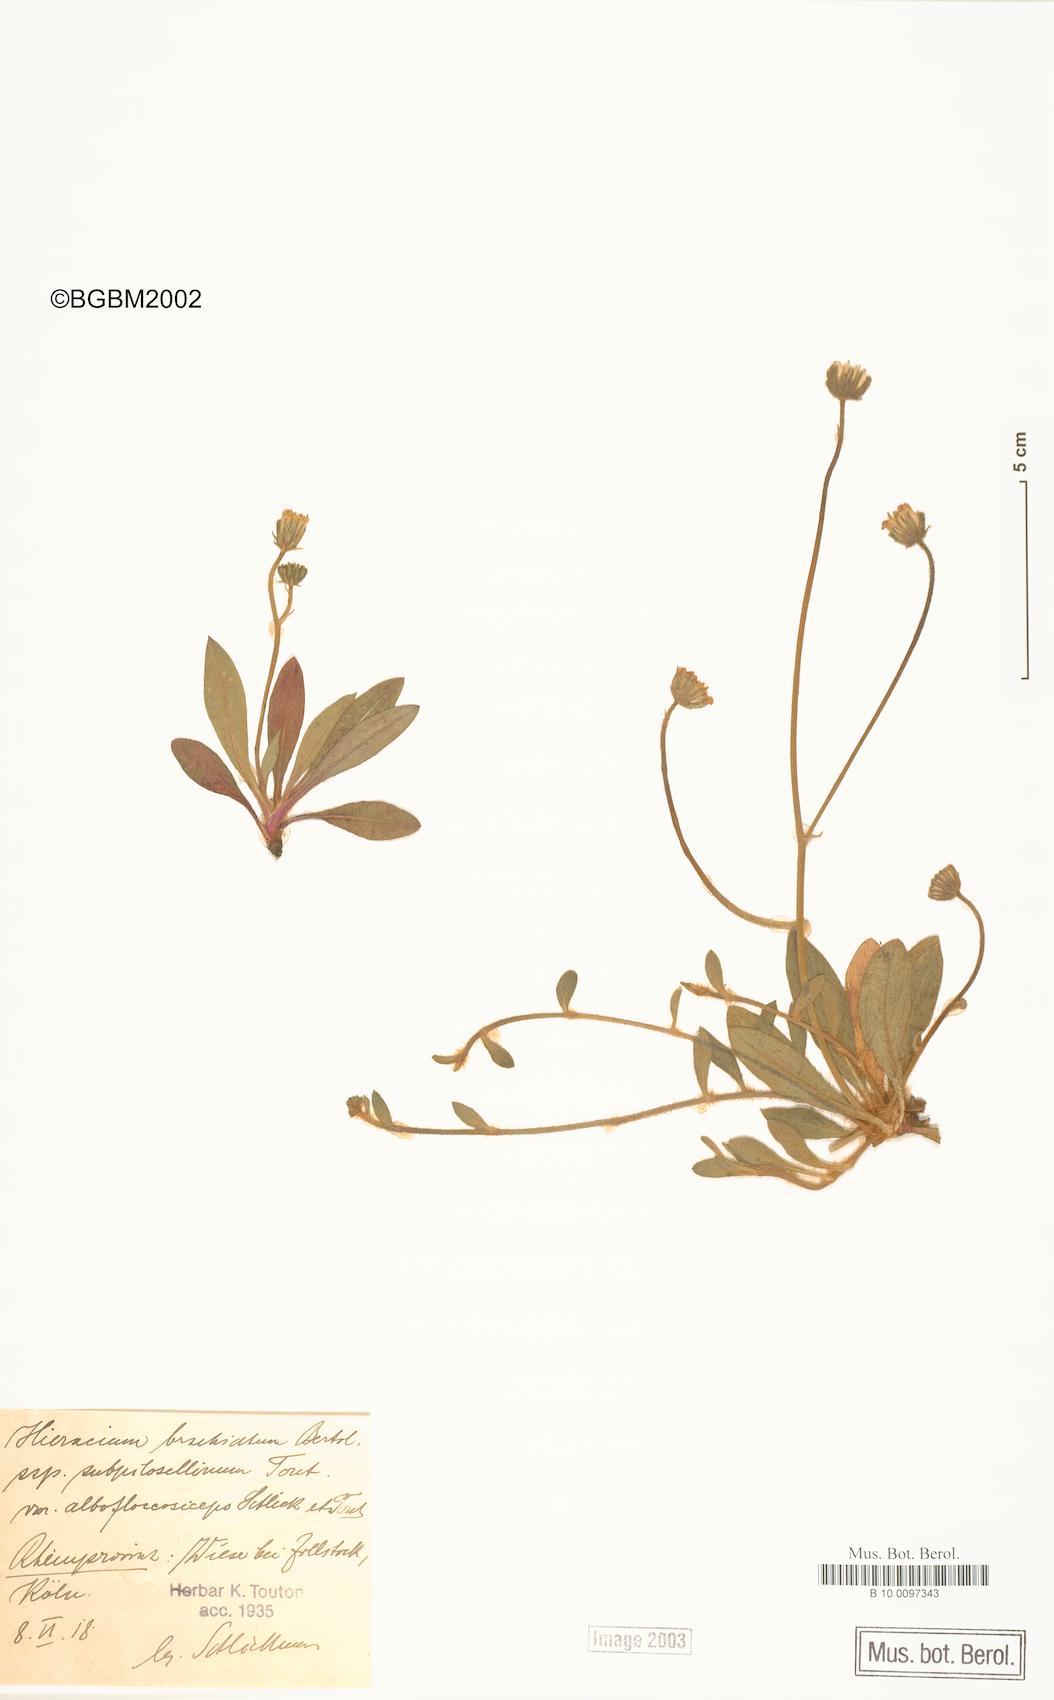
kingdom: Plantae
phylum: Tracheophyta
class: Magnoliopsida
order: Asterales
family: Asteraceae
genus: Pilosella
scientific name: Pilosella acutifolia
